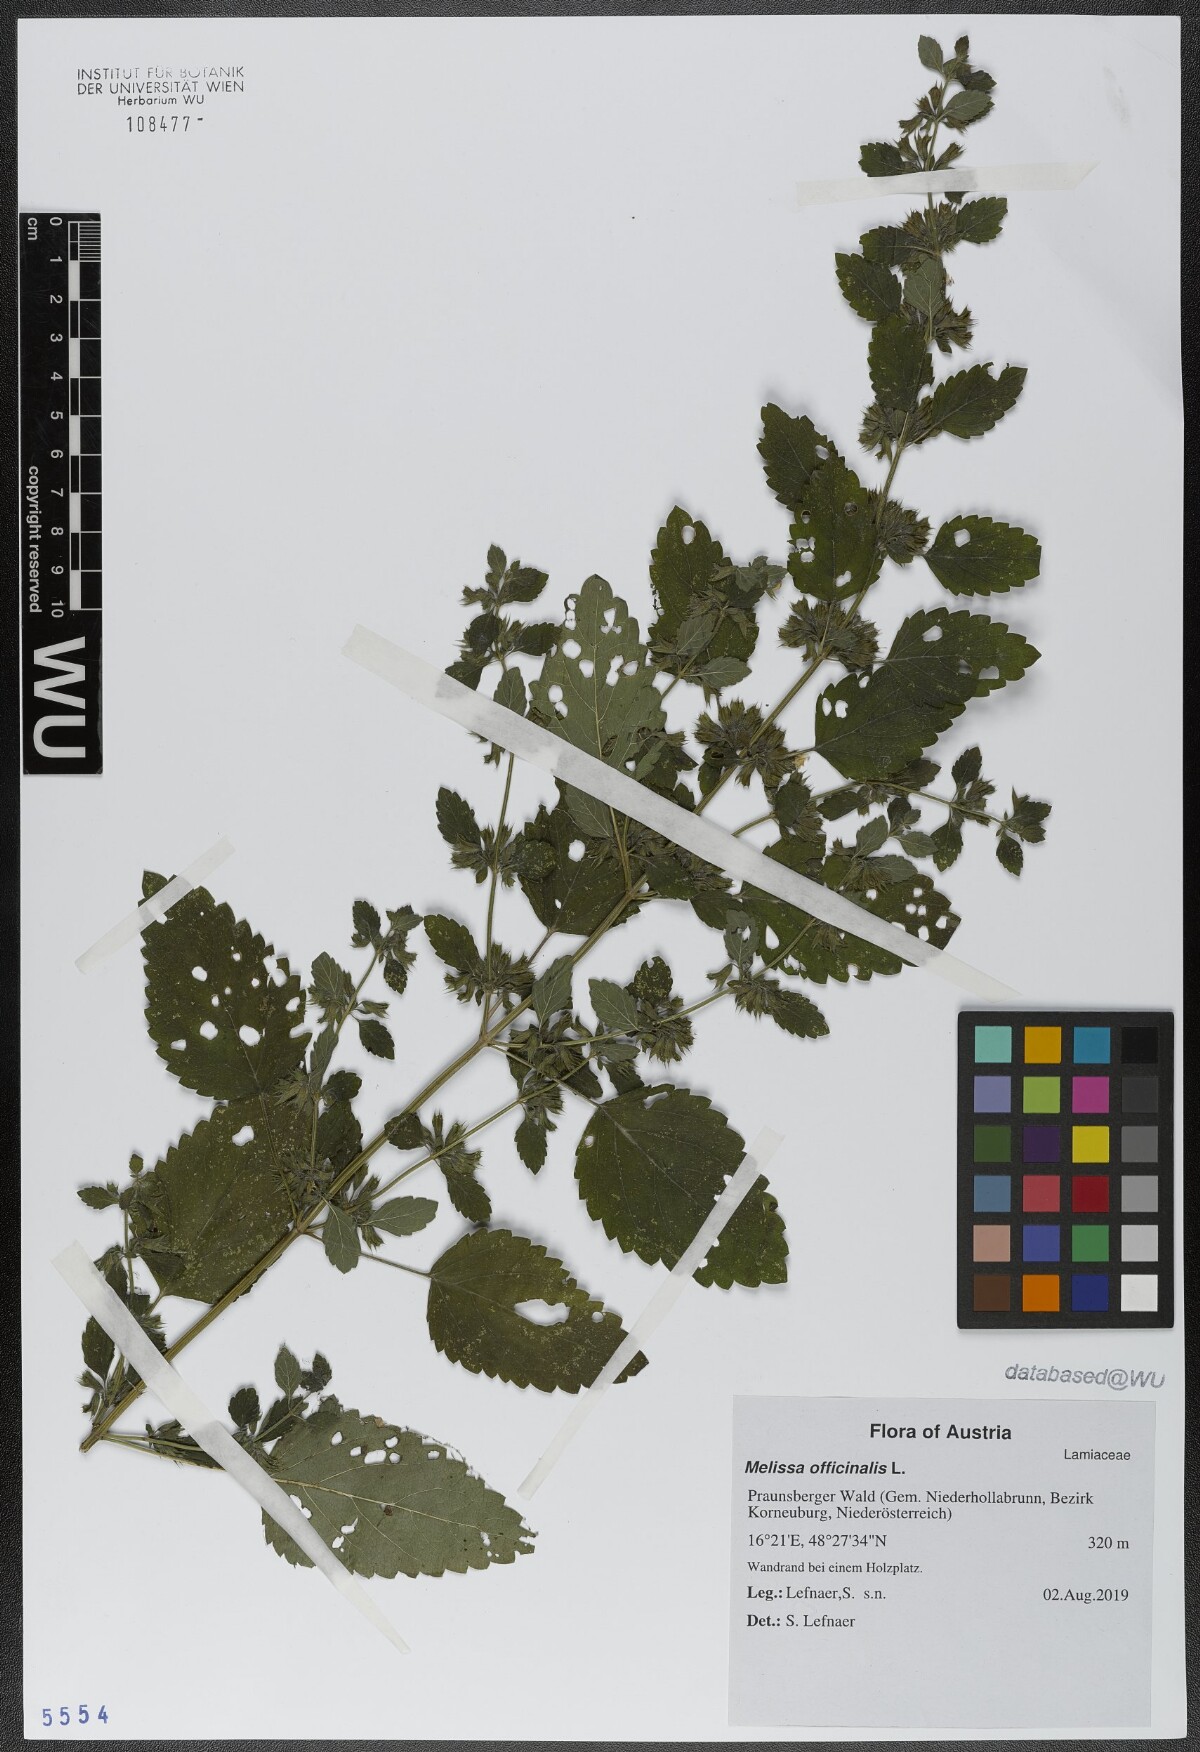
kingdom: Plantae
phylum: Tracheophyta
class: Magnoliopsida
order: Lamiales
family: Lamiaceae
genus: Melissa
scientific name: Melissa officinalis
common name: Balm
